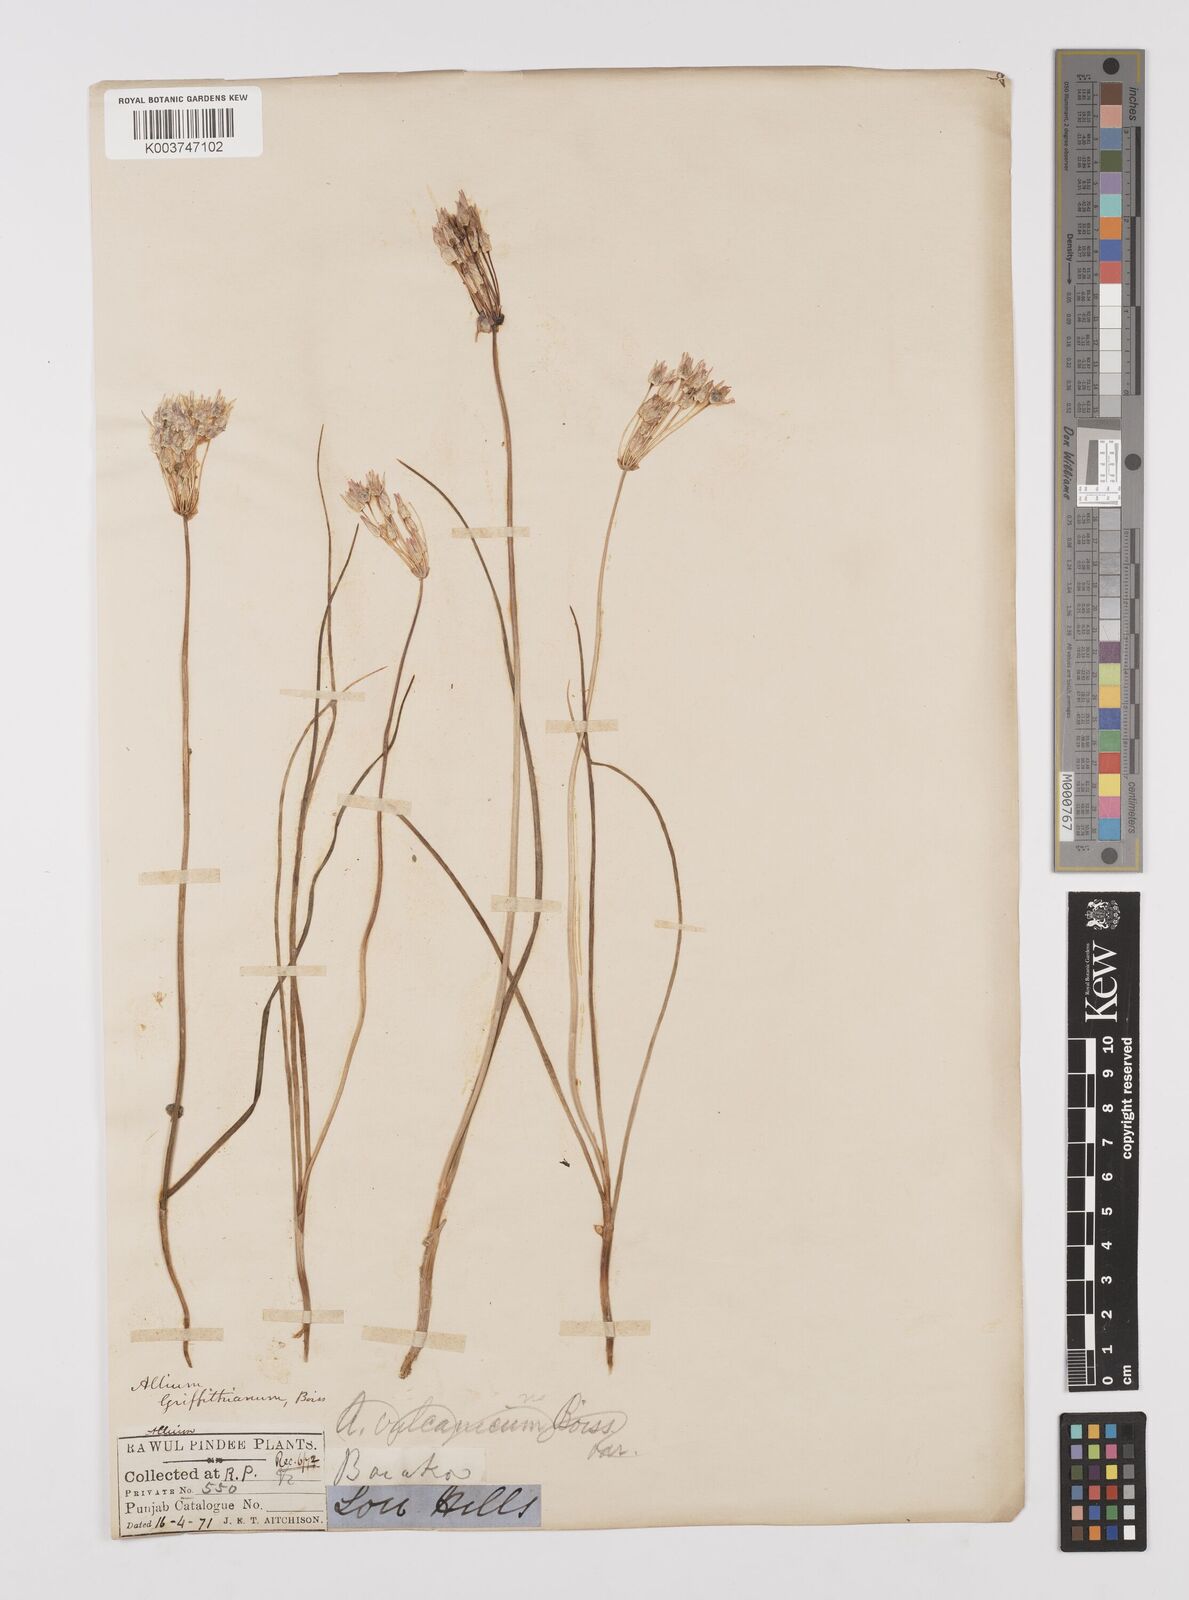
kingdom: Plantae
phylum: Tracheophyta
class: Liliopsida
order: Asparagales
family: Amaryllidaceae
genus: Allium
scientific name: Allium griffithianum
